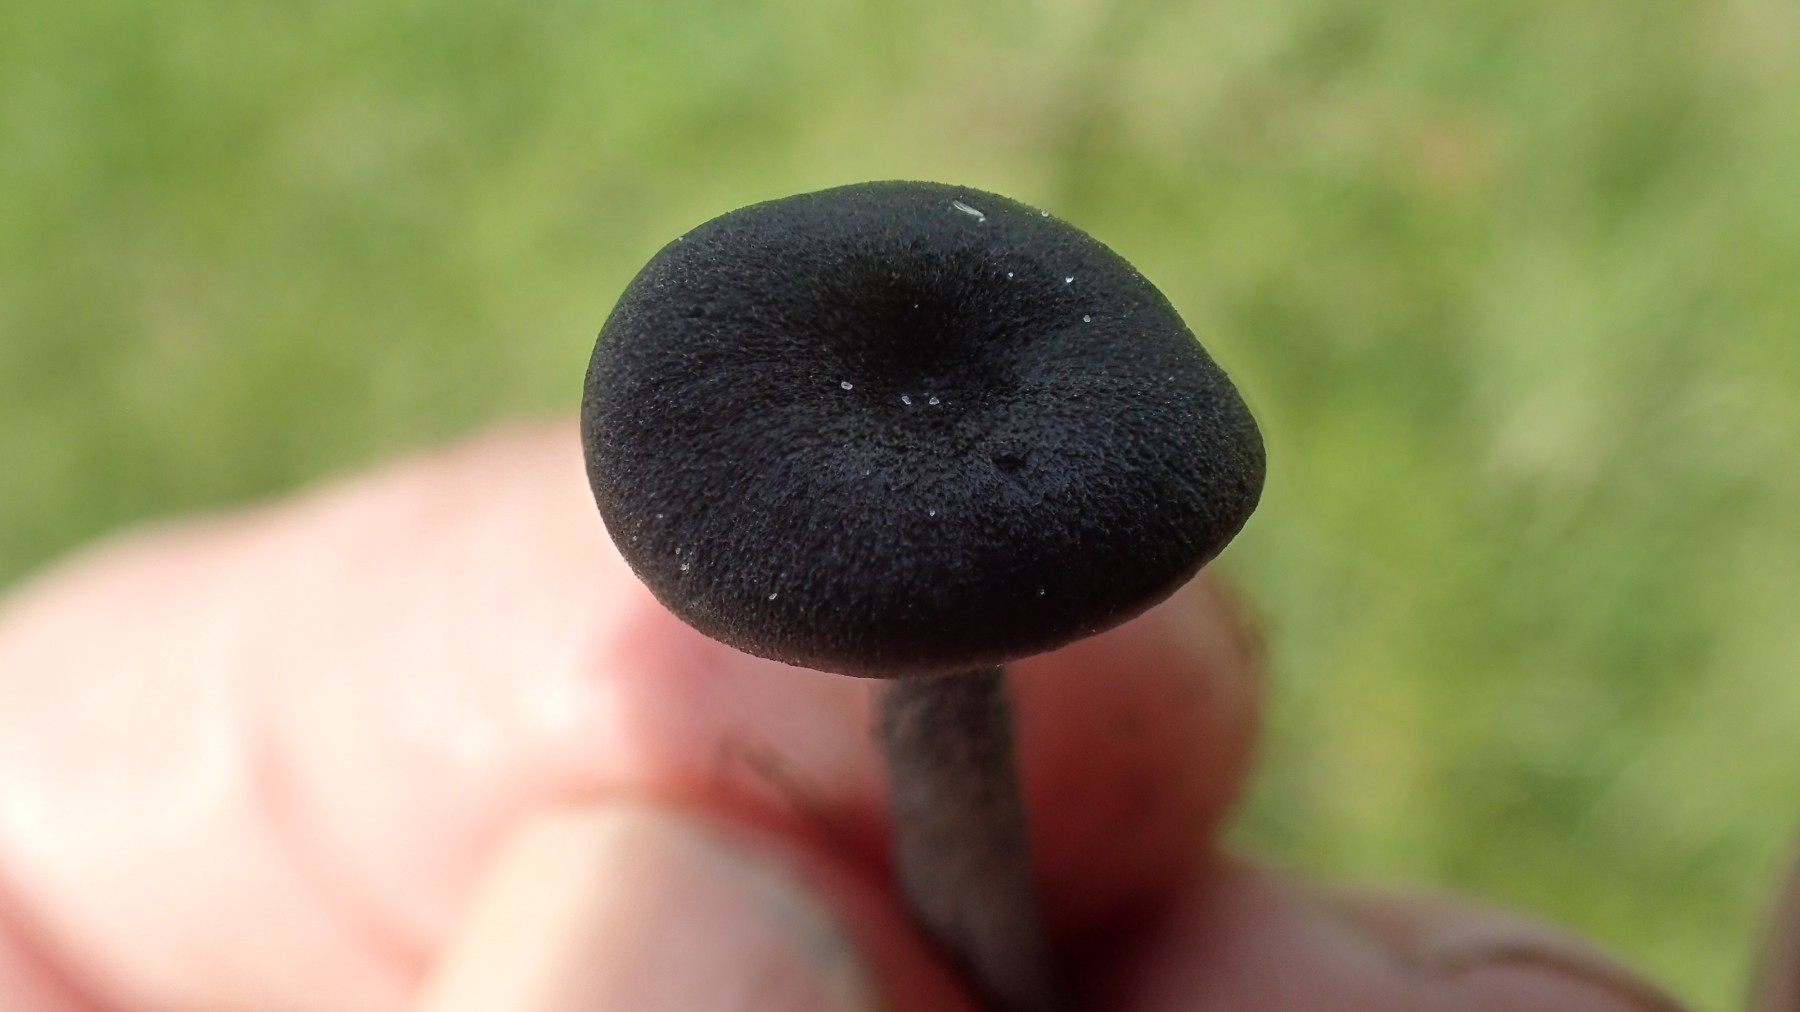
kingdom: Fungi
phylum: Basidiomycota
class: Agaricomycetes
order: Agaricales
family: Entolomataceae
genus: Entoloma
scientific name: Entoloma
